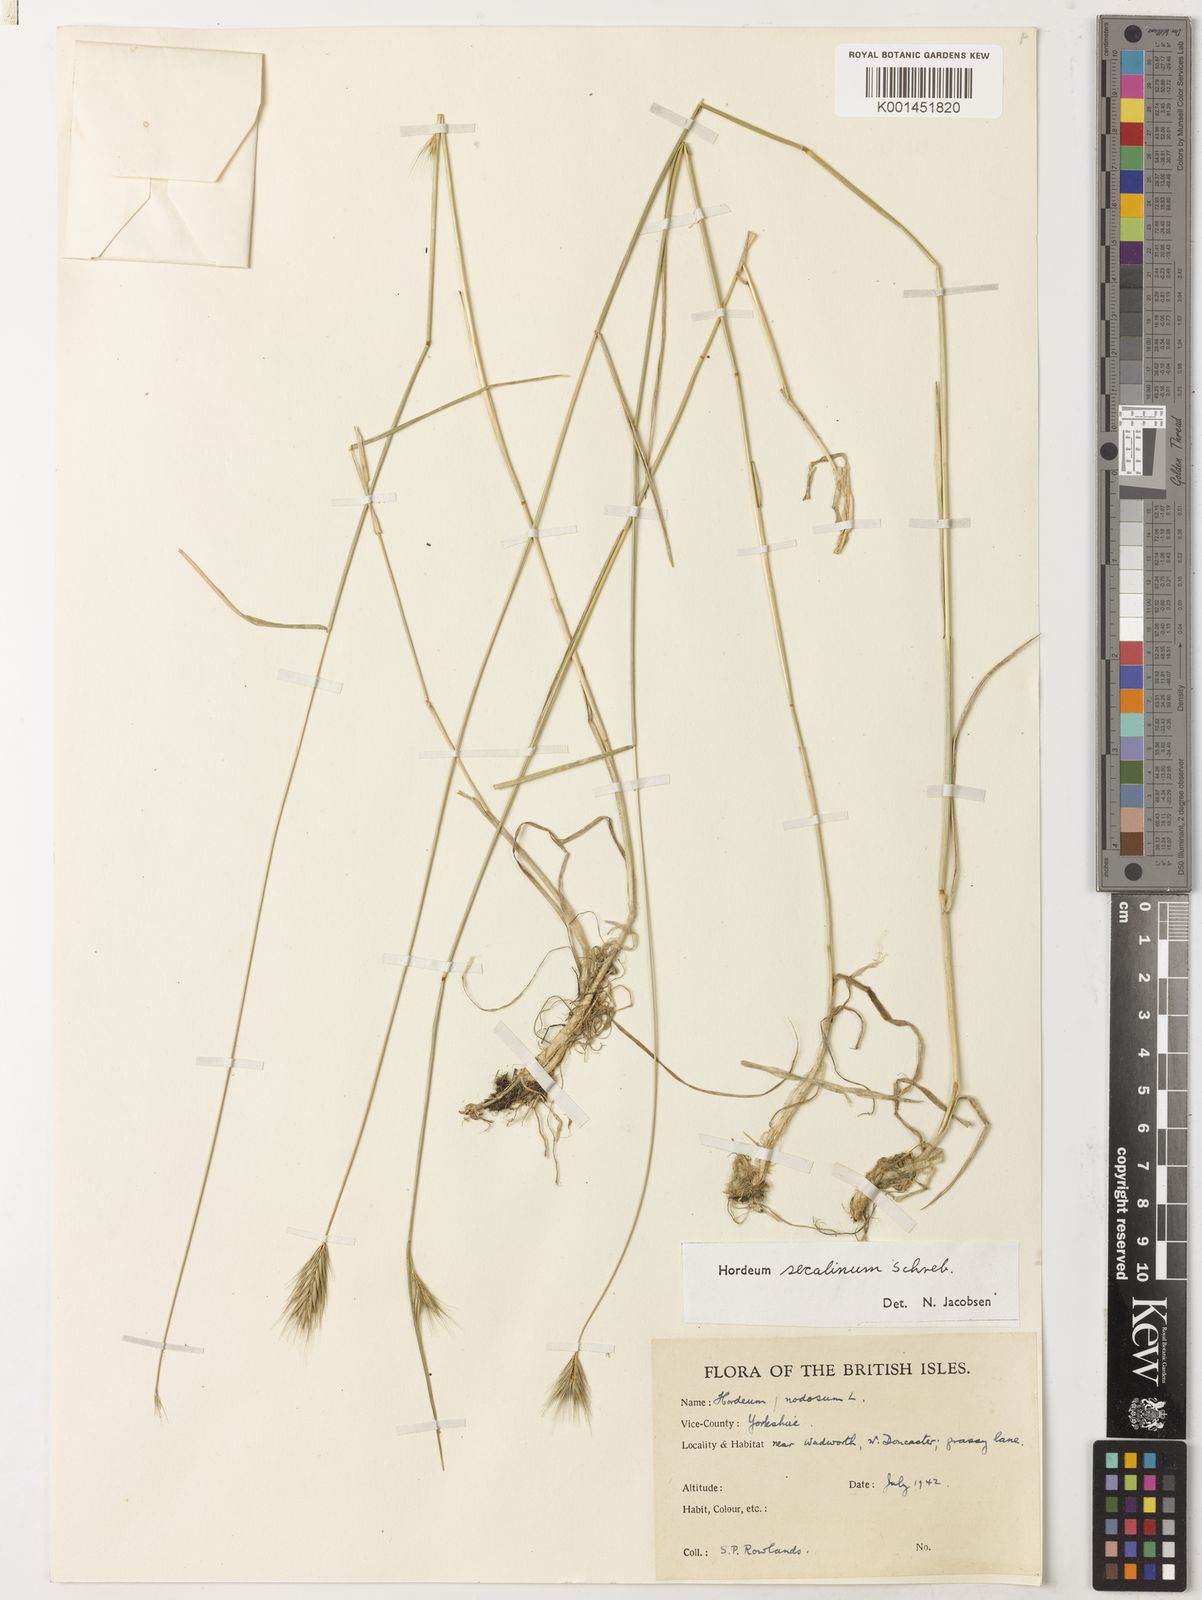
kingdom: Plantae
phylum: Tracheophyta
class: Liliopsida
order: Poales
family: Poaceae
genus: Hordeum
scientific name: Hordeum secalinum
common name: Meadow barley
